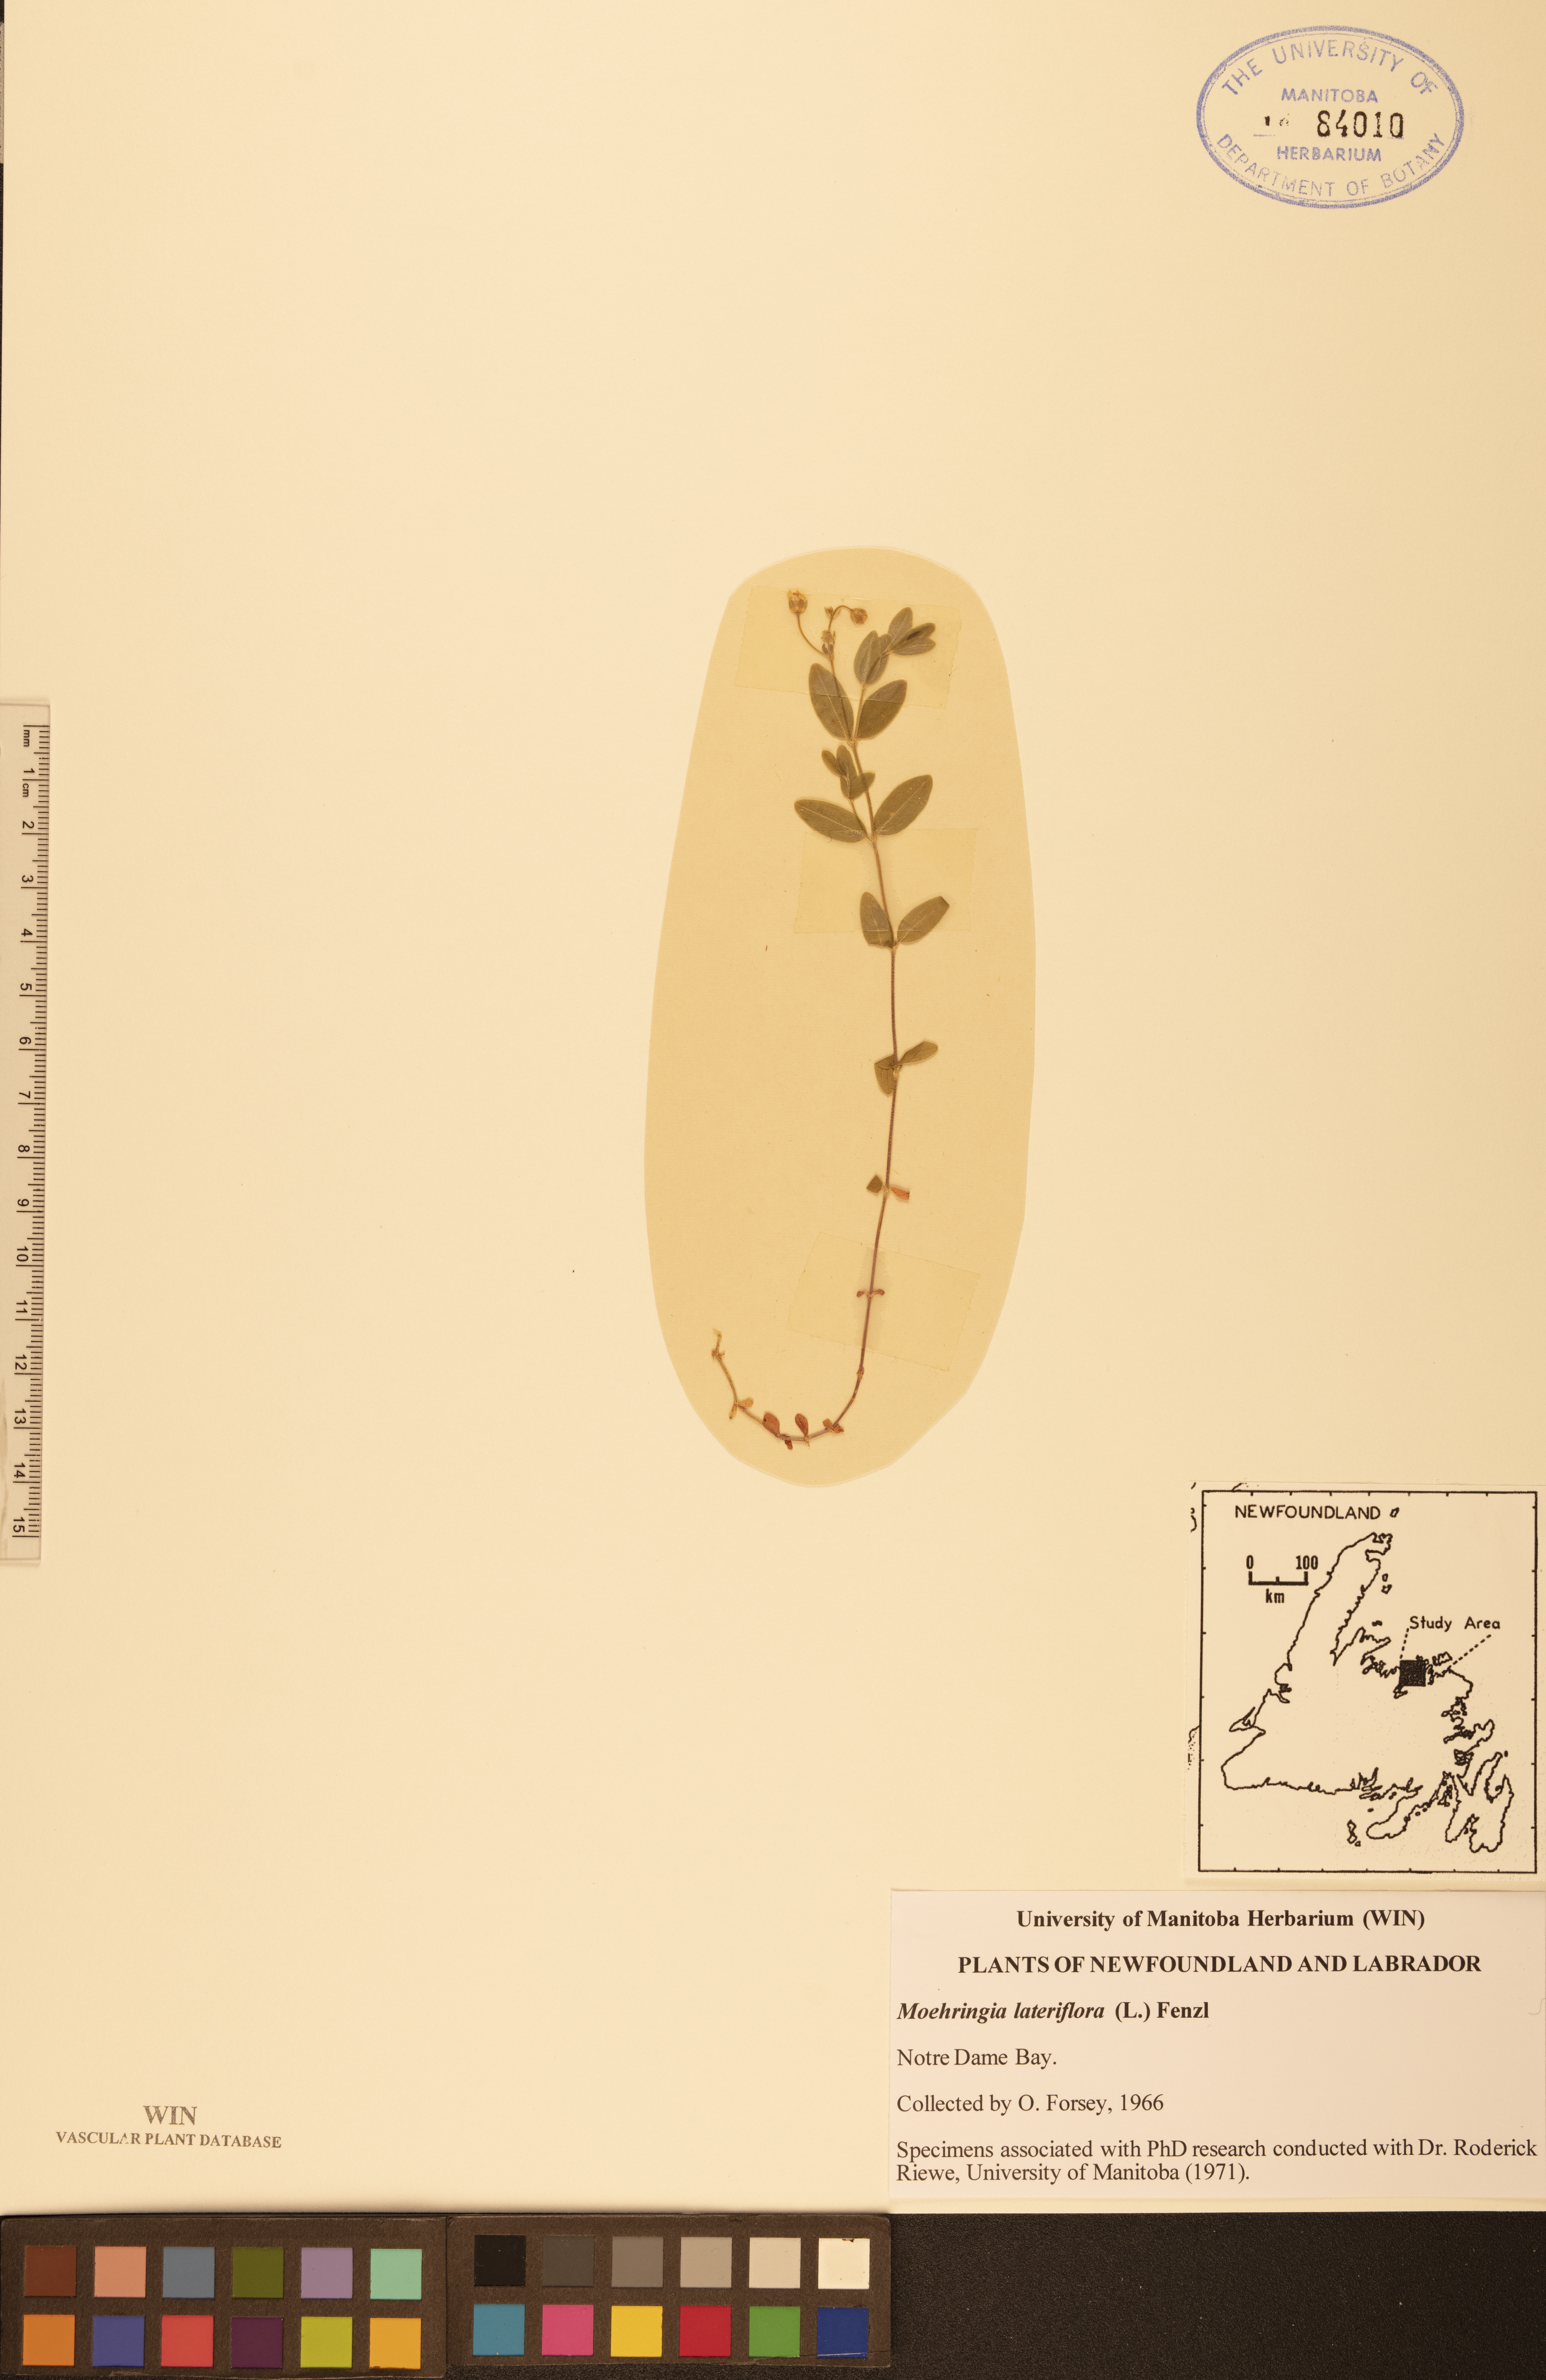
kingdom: Plantae
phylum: Tracheophyta
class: Magnoliopsida
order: Caryophyllales
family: Caryophyllaceae
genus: Moehringia
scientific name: Moehringia lateriflora
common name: Blunt-leaved sandwort
